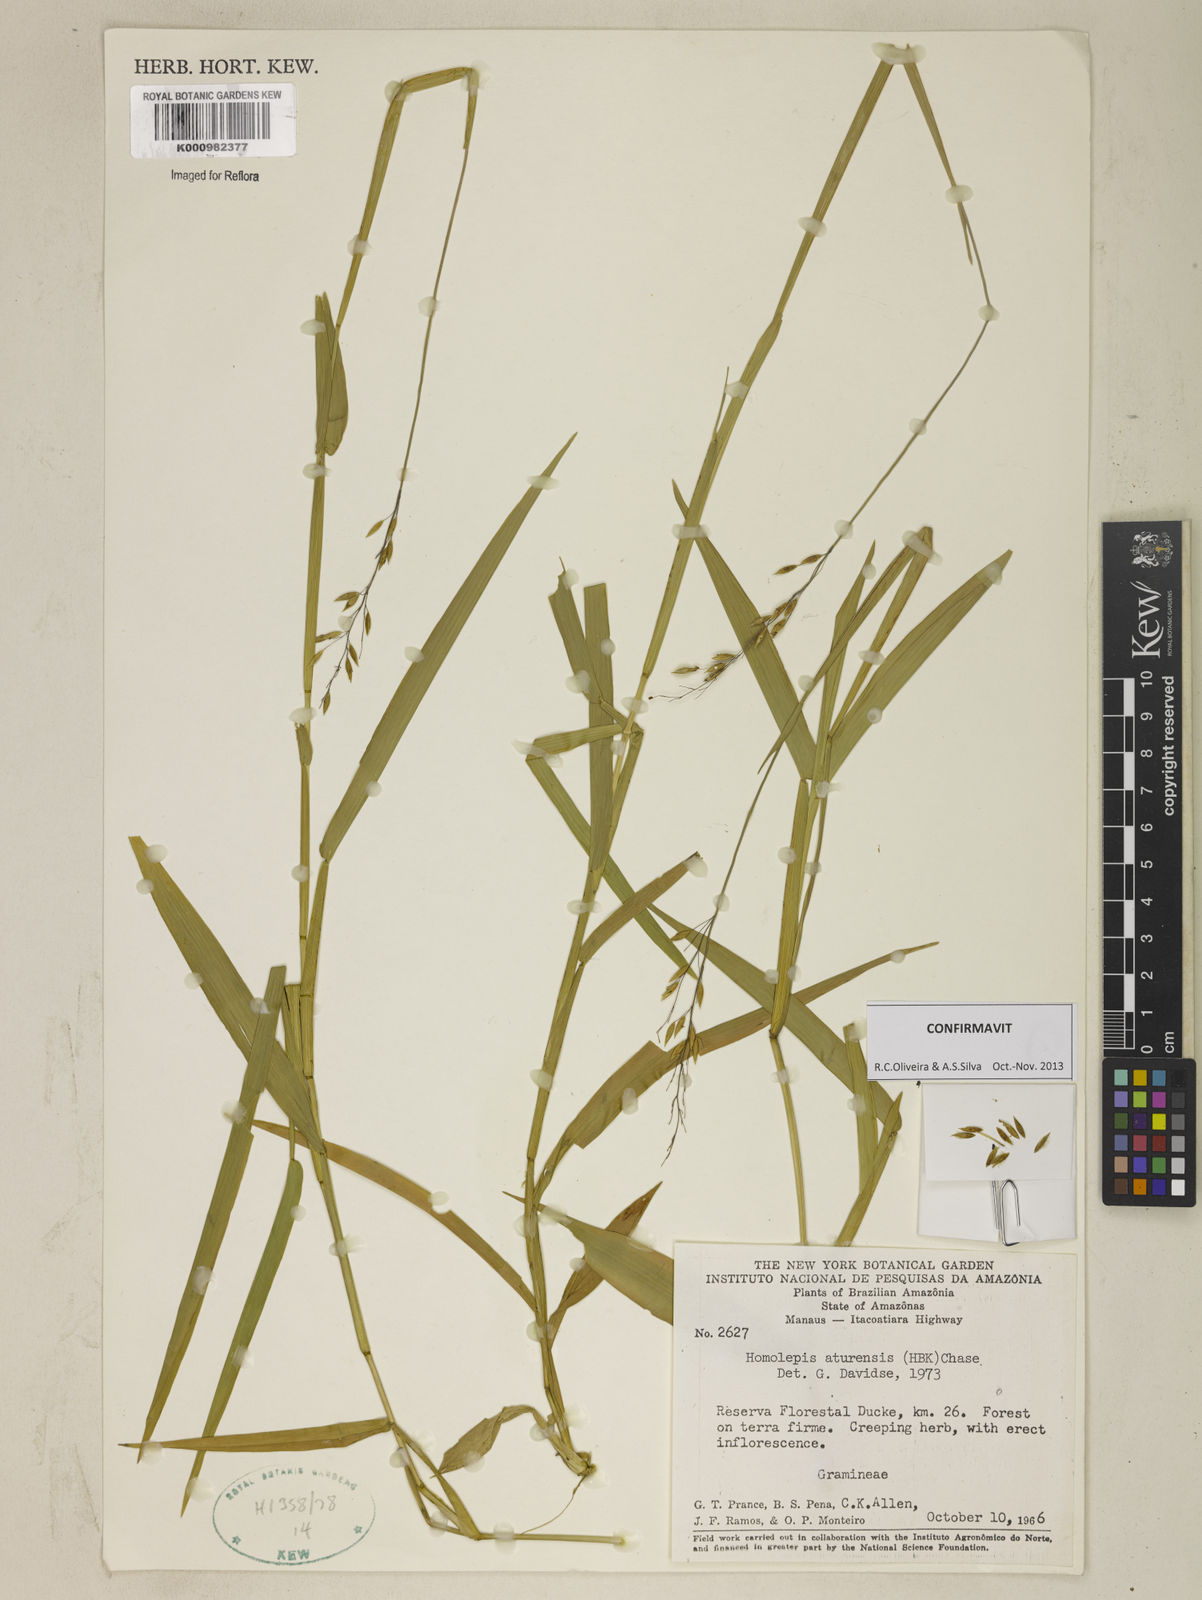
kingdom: Plantae
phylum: Tracheophyta
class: Liliopsida
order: Poales
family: Poaceae
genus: Homolepis
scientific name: Homolepis aturensis
